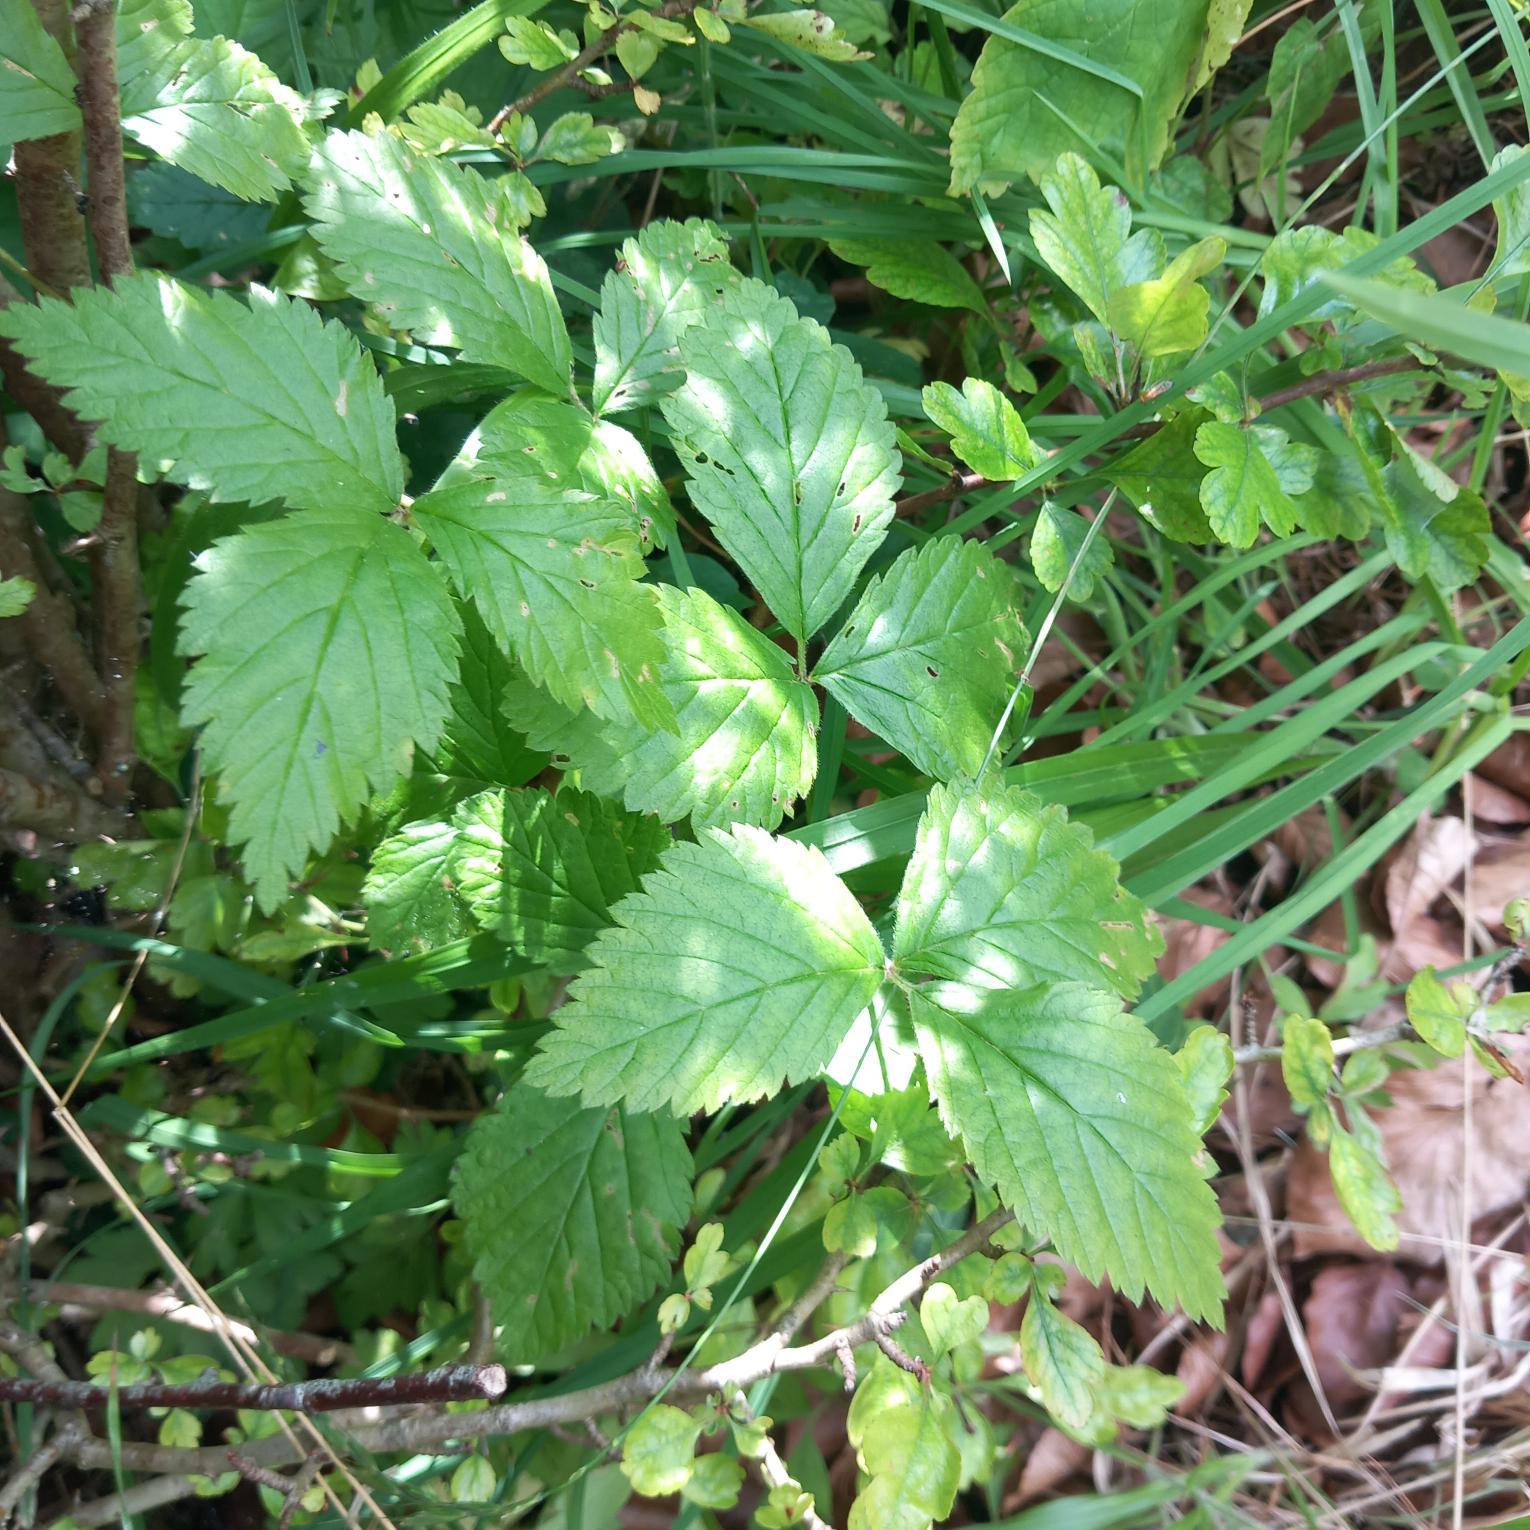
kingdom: Plantae
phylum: Tracheophyta
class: Magnoliopsida
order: Rosales
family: Rosaceae
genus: Rubus
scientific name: Rubus saxatilis
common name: Fruebær
